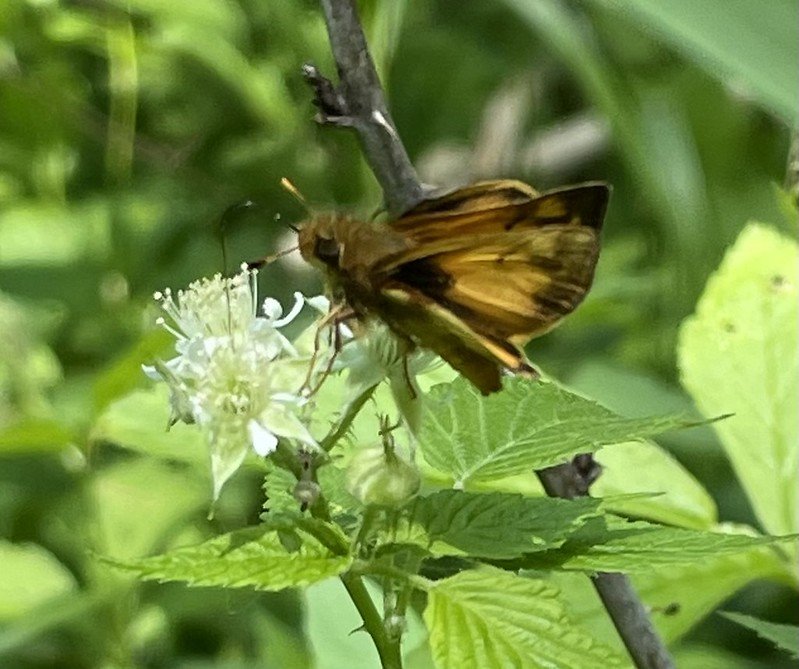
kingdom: Animalia
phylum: Arthropoda
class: Insecta
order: Lepidoptera
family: Hesperiidae
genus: Lon
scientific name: Lon zabulon
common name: Zabulon Skipper
